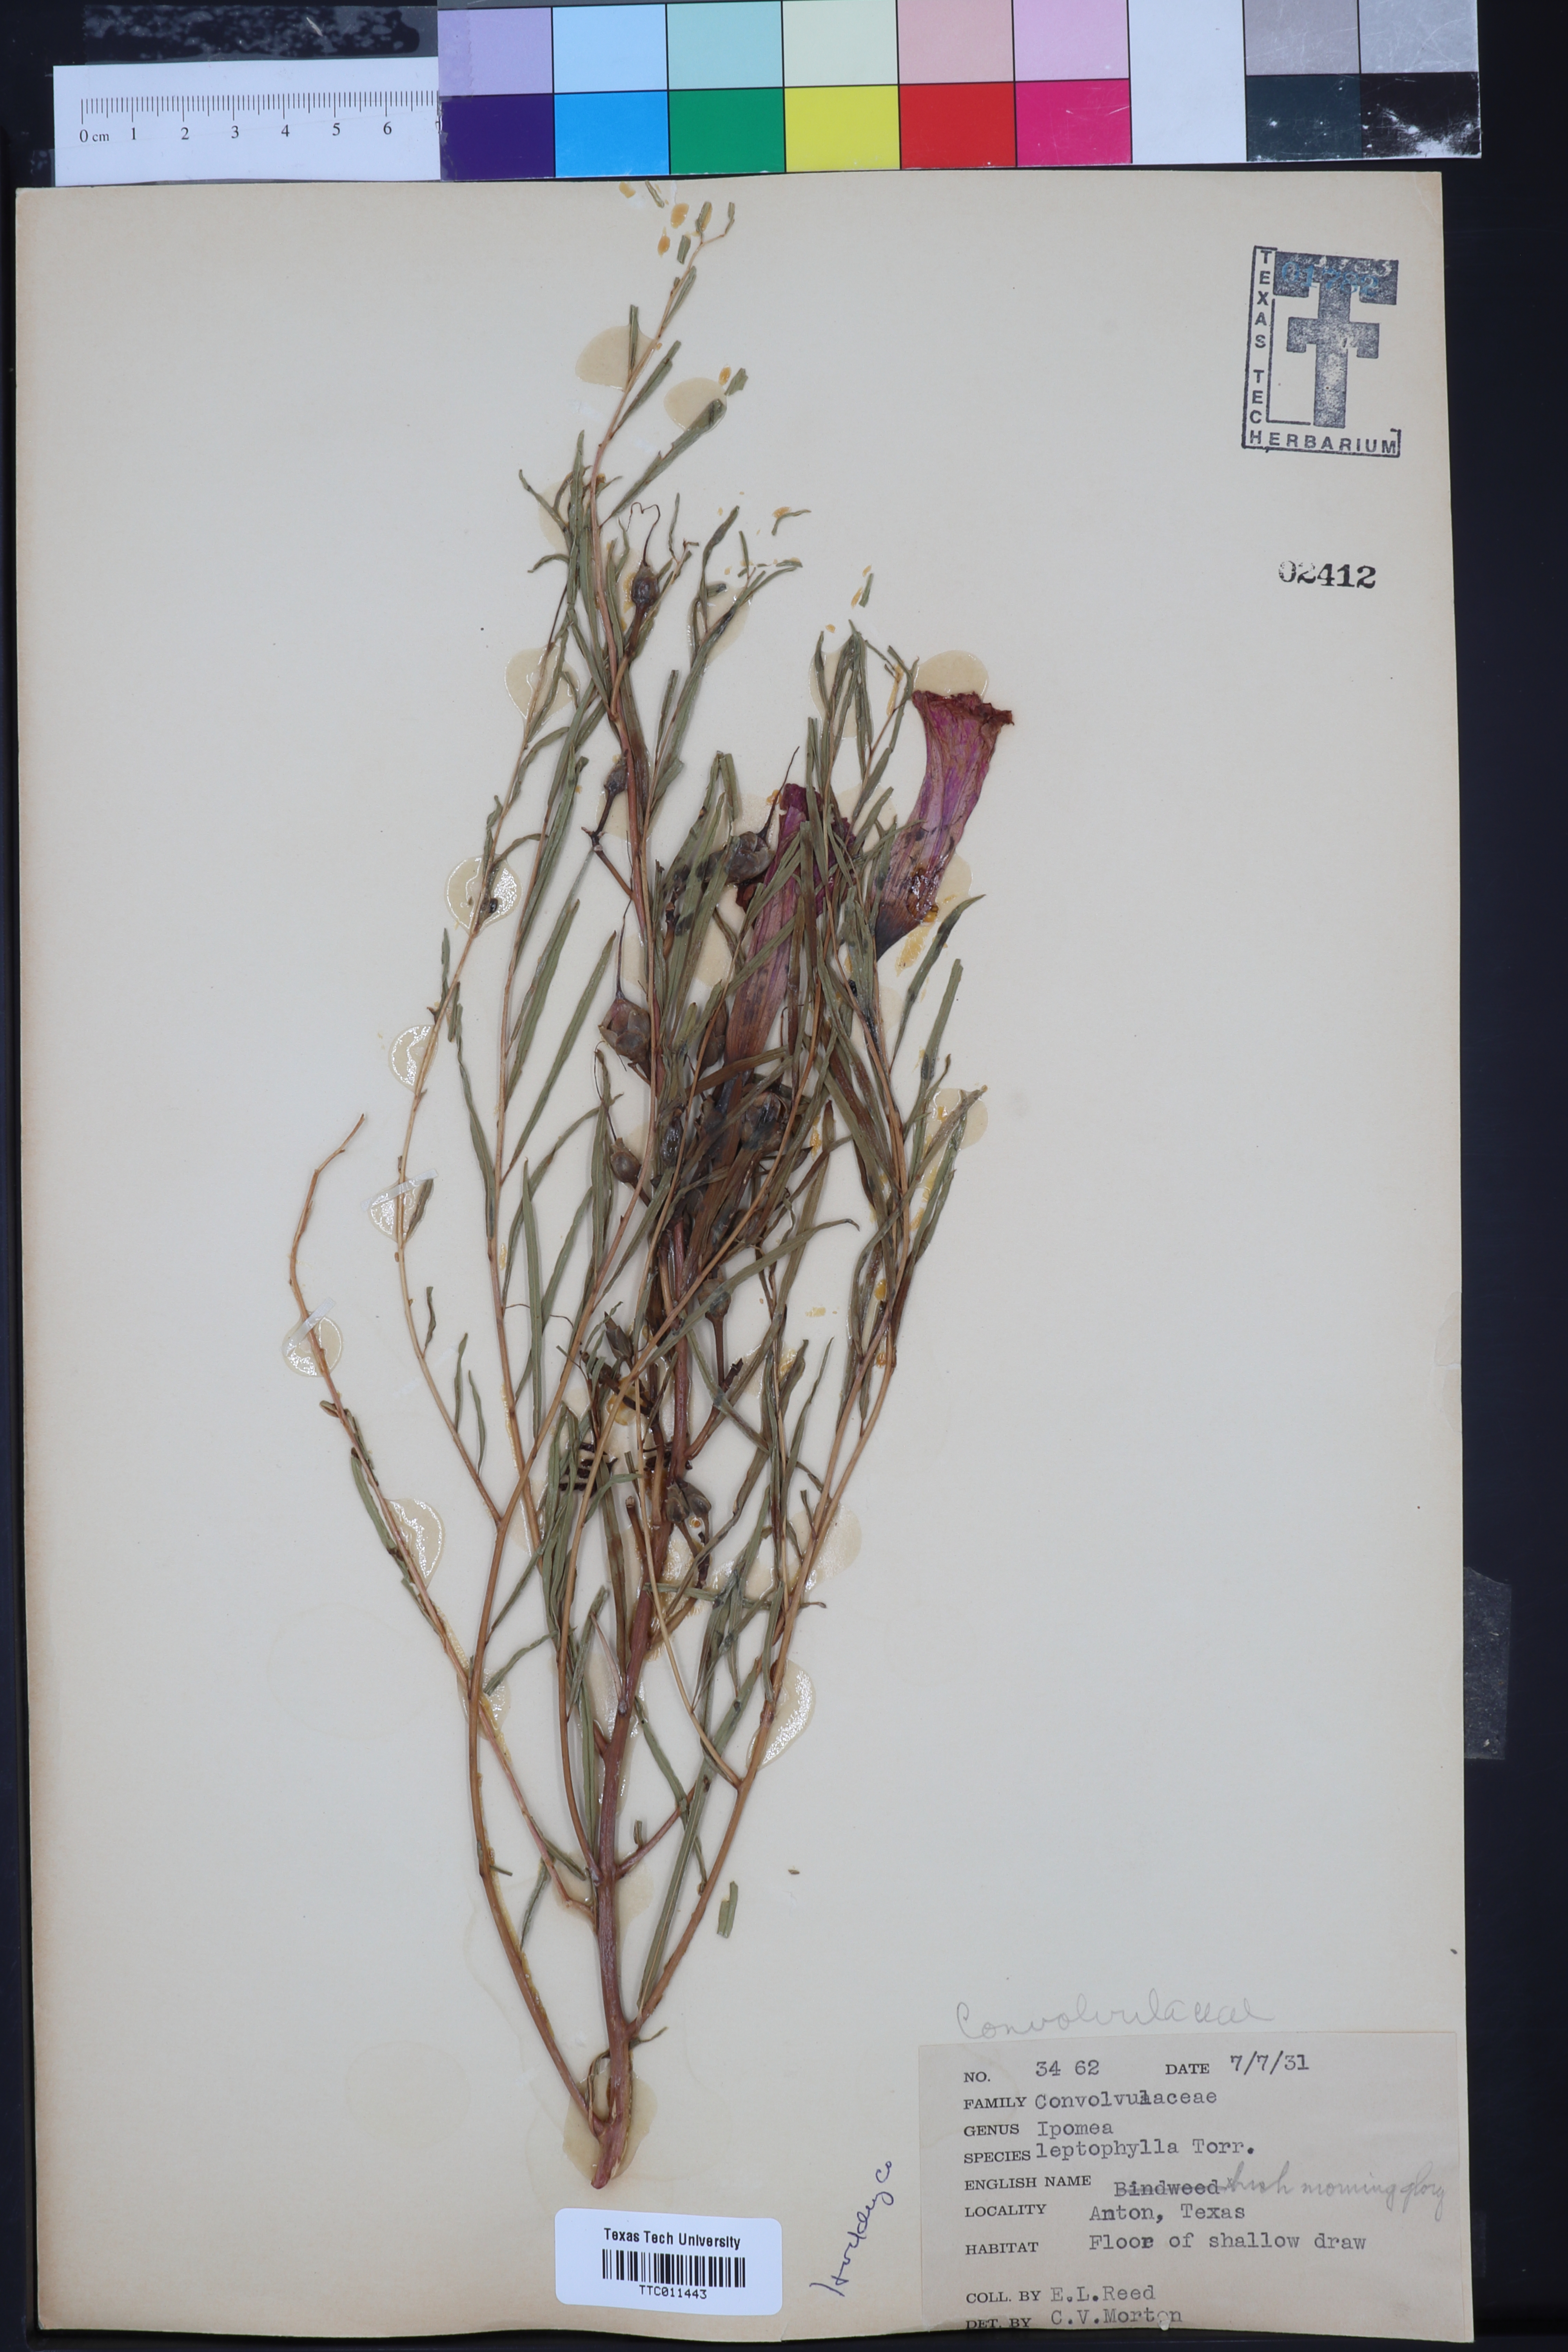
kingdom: Plantae
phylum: Tracheophyta
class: Magnoliopsida
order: Solanales
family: Convolvulaceae
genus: Ipomoea
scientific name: Ipomoea leptophylla
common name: Bush moonflower
